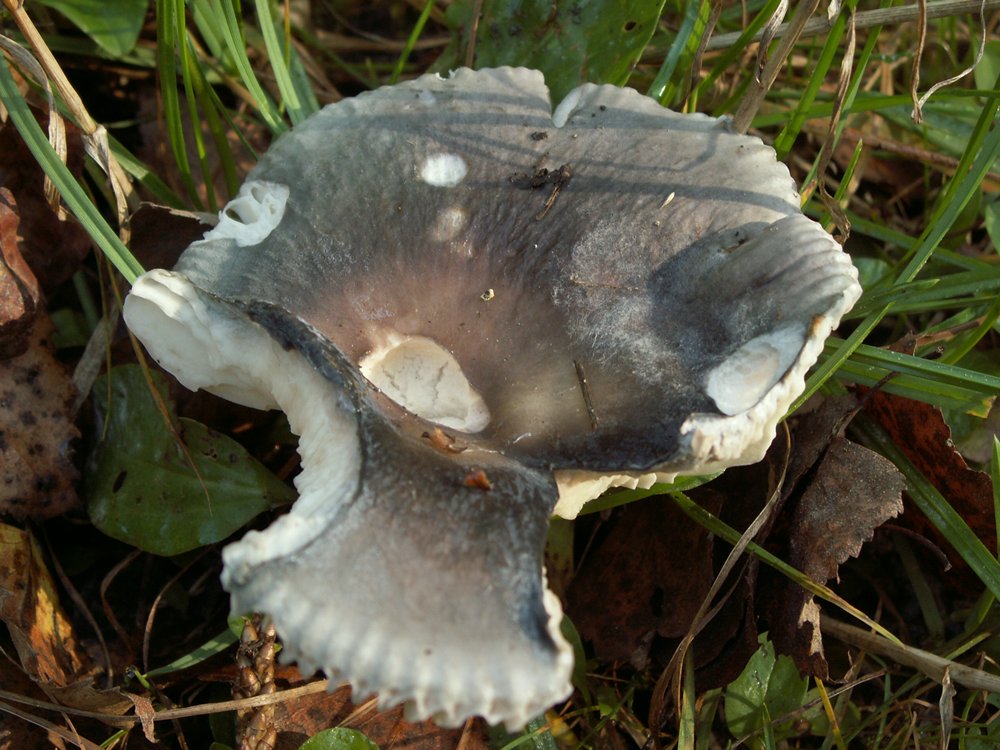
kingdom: Fungi
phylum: Basidiomycota
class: Agaricomycetes
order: Russulales
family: Russulaceae
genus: Russula
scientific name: Russula parazurea
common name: blågrå skørhat
